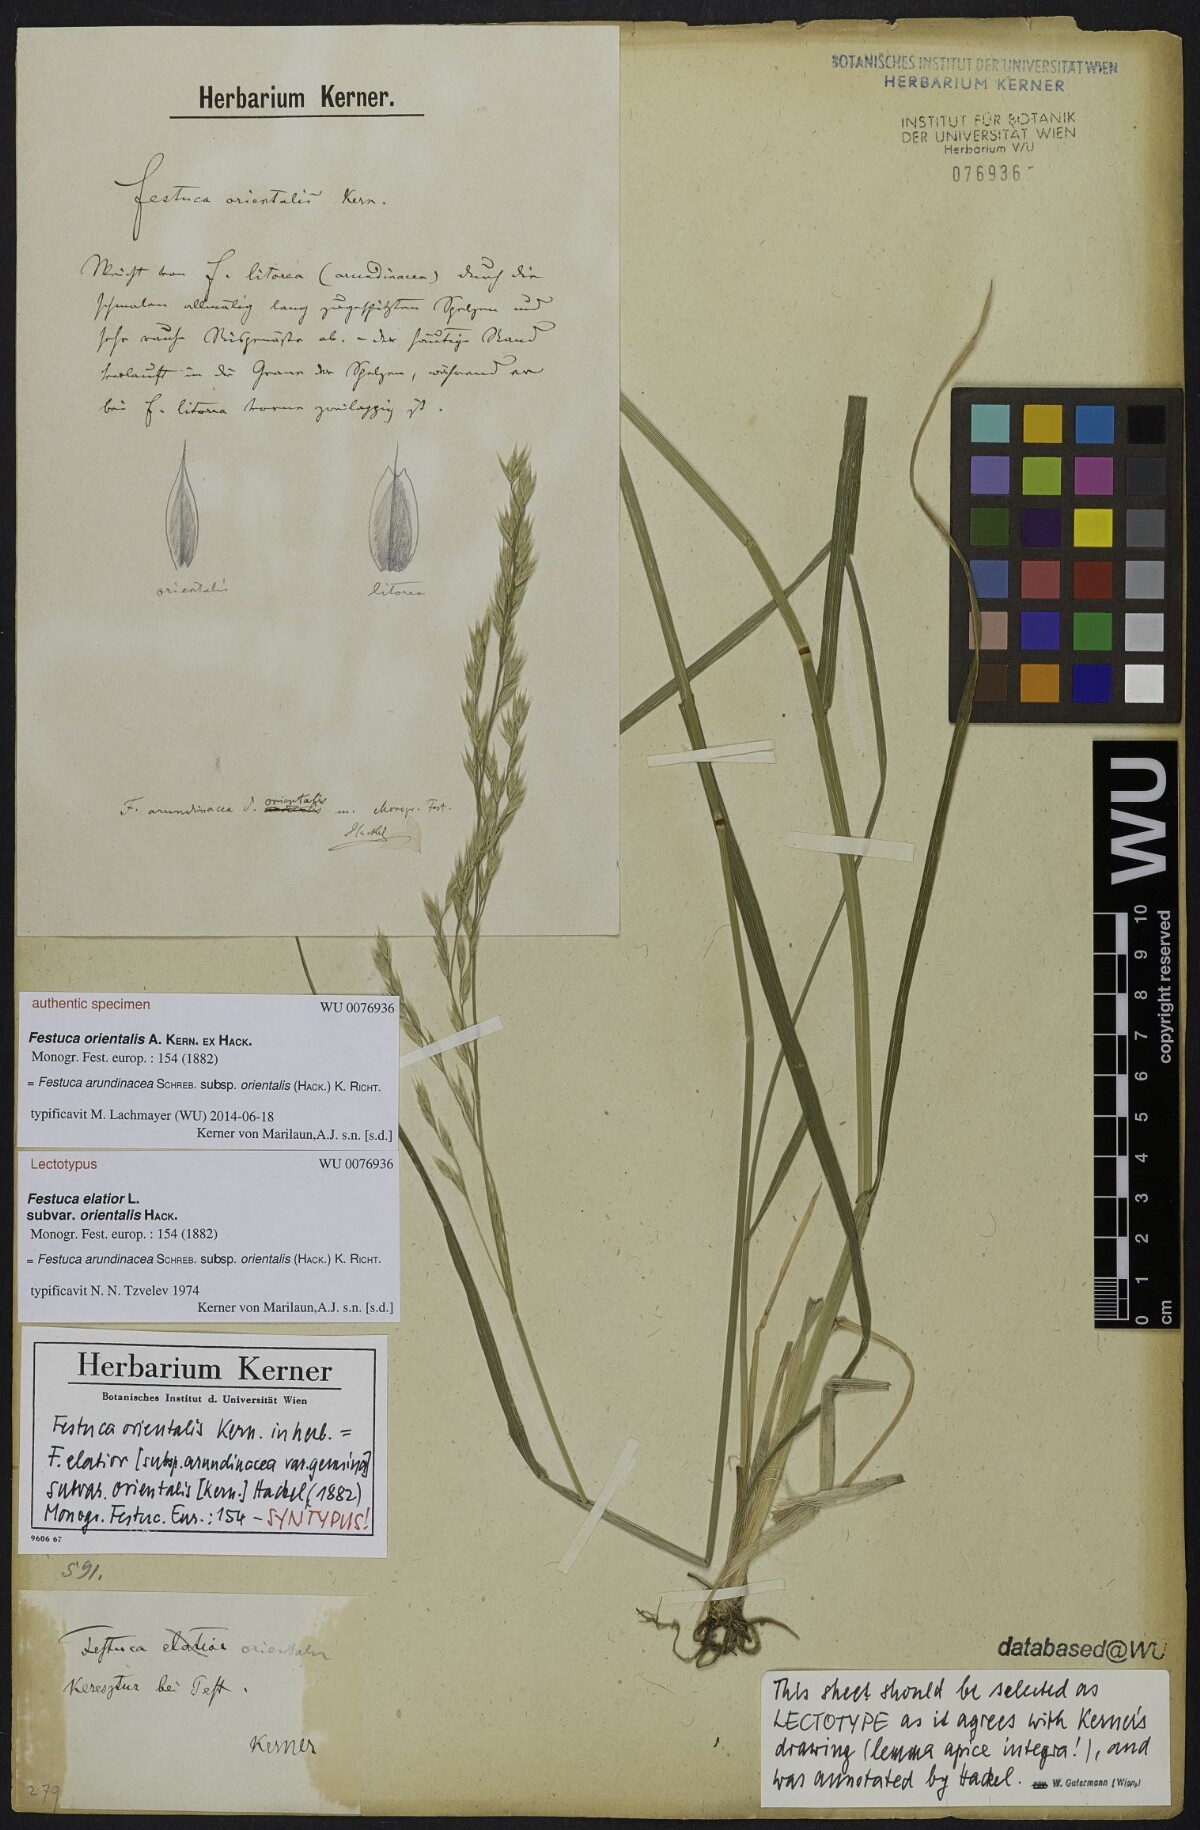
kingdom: Plantae
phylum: Tracheophyta
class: Liliopsida
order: Poales
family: Poaceae
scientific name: Poaceae
